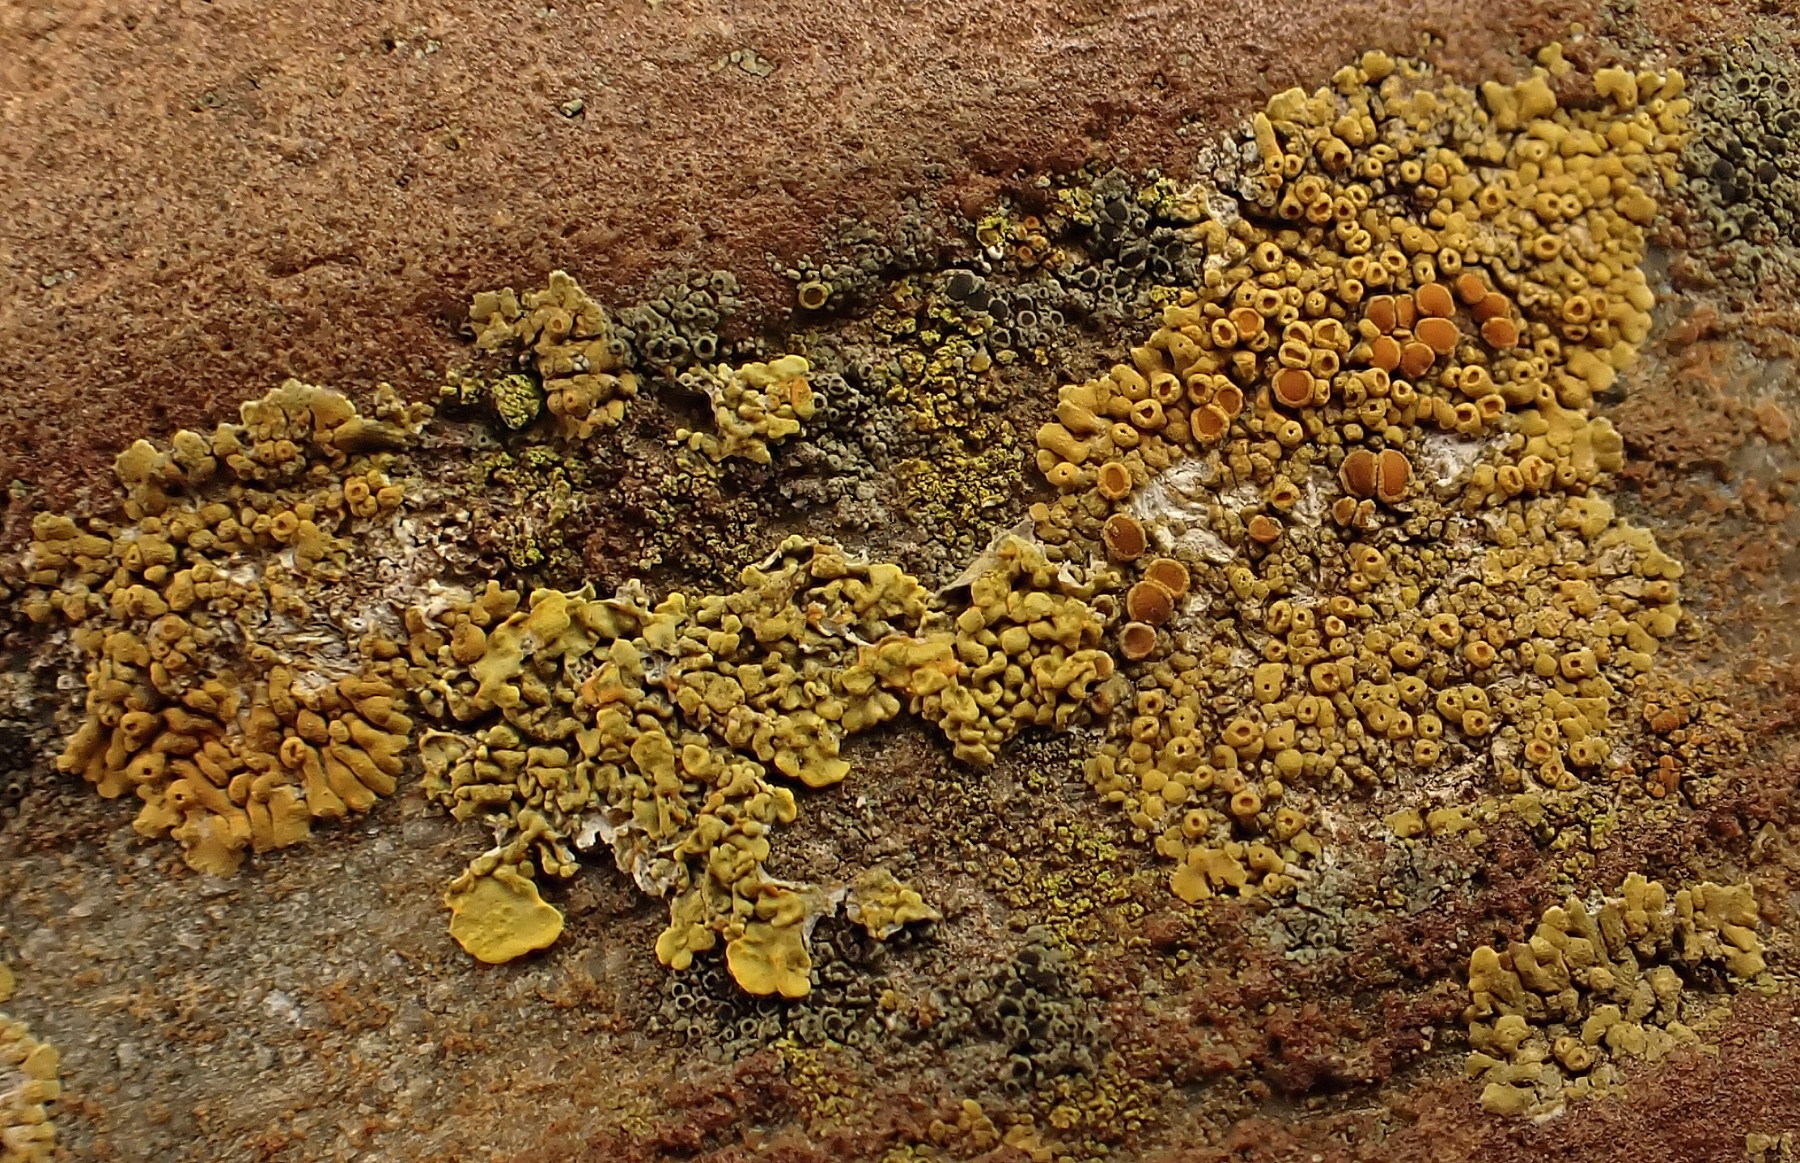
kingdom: Fungi
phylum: Ascomycota
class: Lecanoromycetes
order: Teloschistales
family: Teloschistaceae
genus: Calogaya
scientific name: Calogaya saxicola
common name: mur-orangelav
